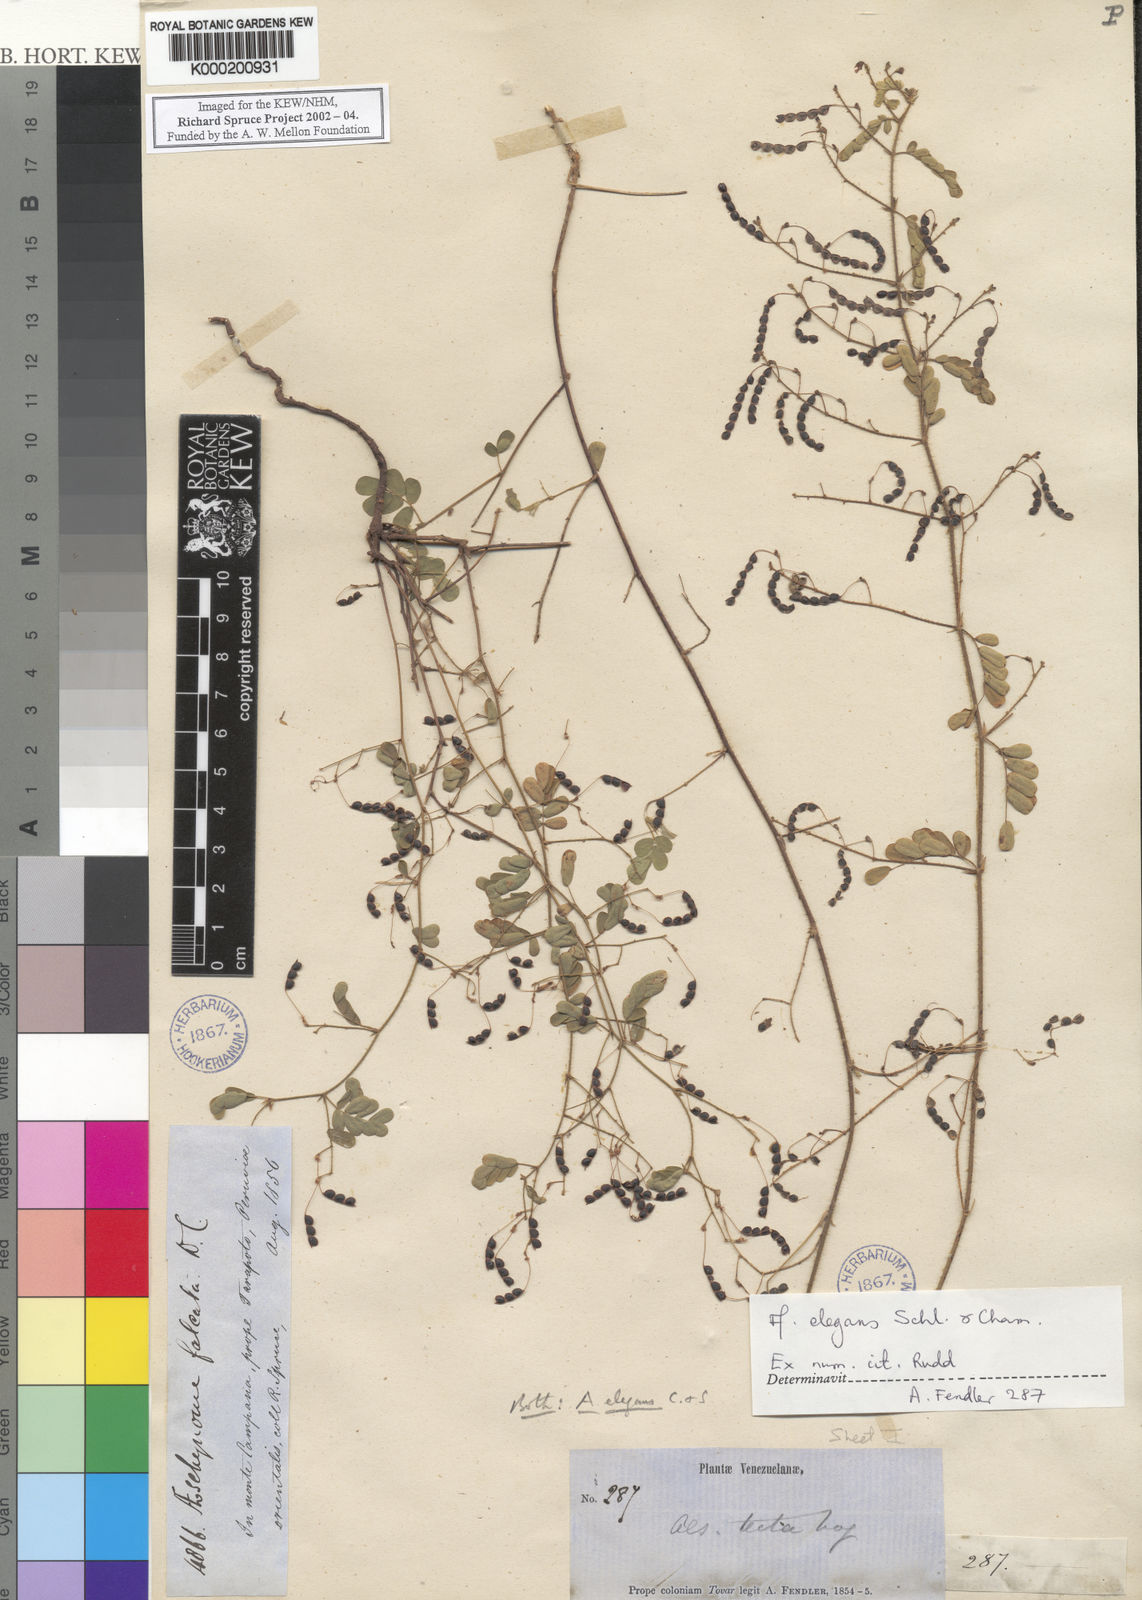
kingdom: Plantae
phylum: Tracheophyta
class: Magnoliopsida
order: Fabales
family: Fabaceae
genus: Ctenodon
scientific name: Ctenodon elegans
